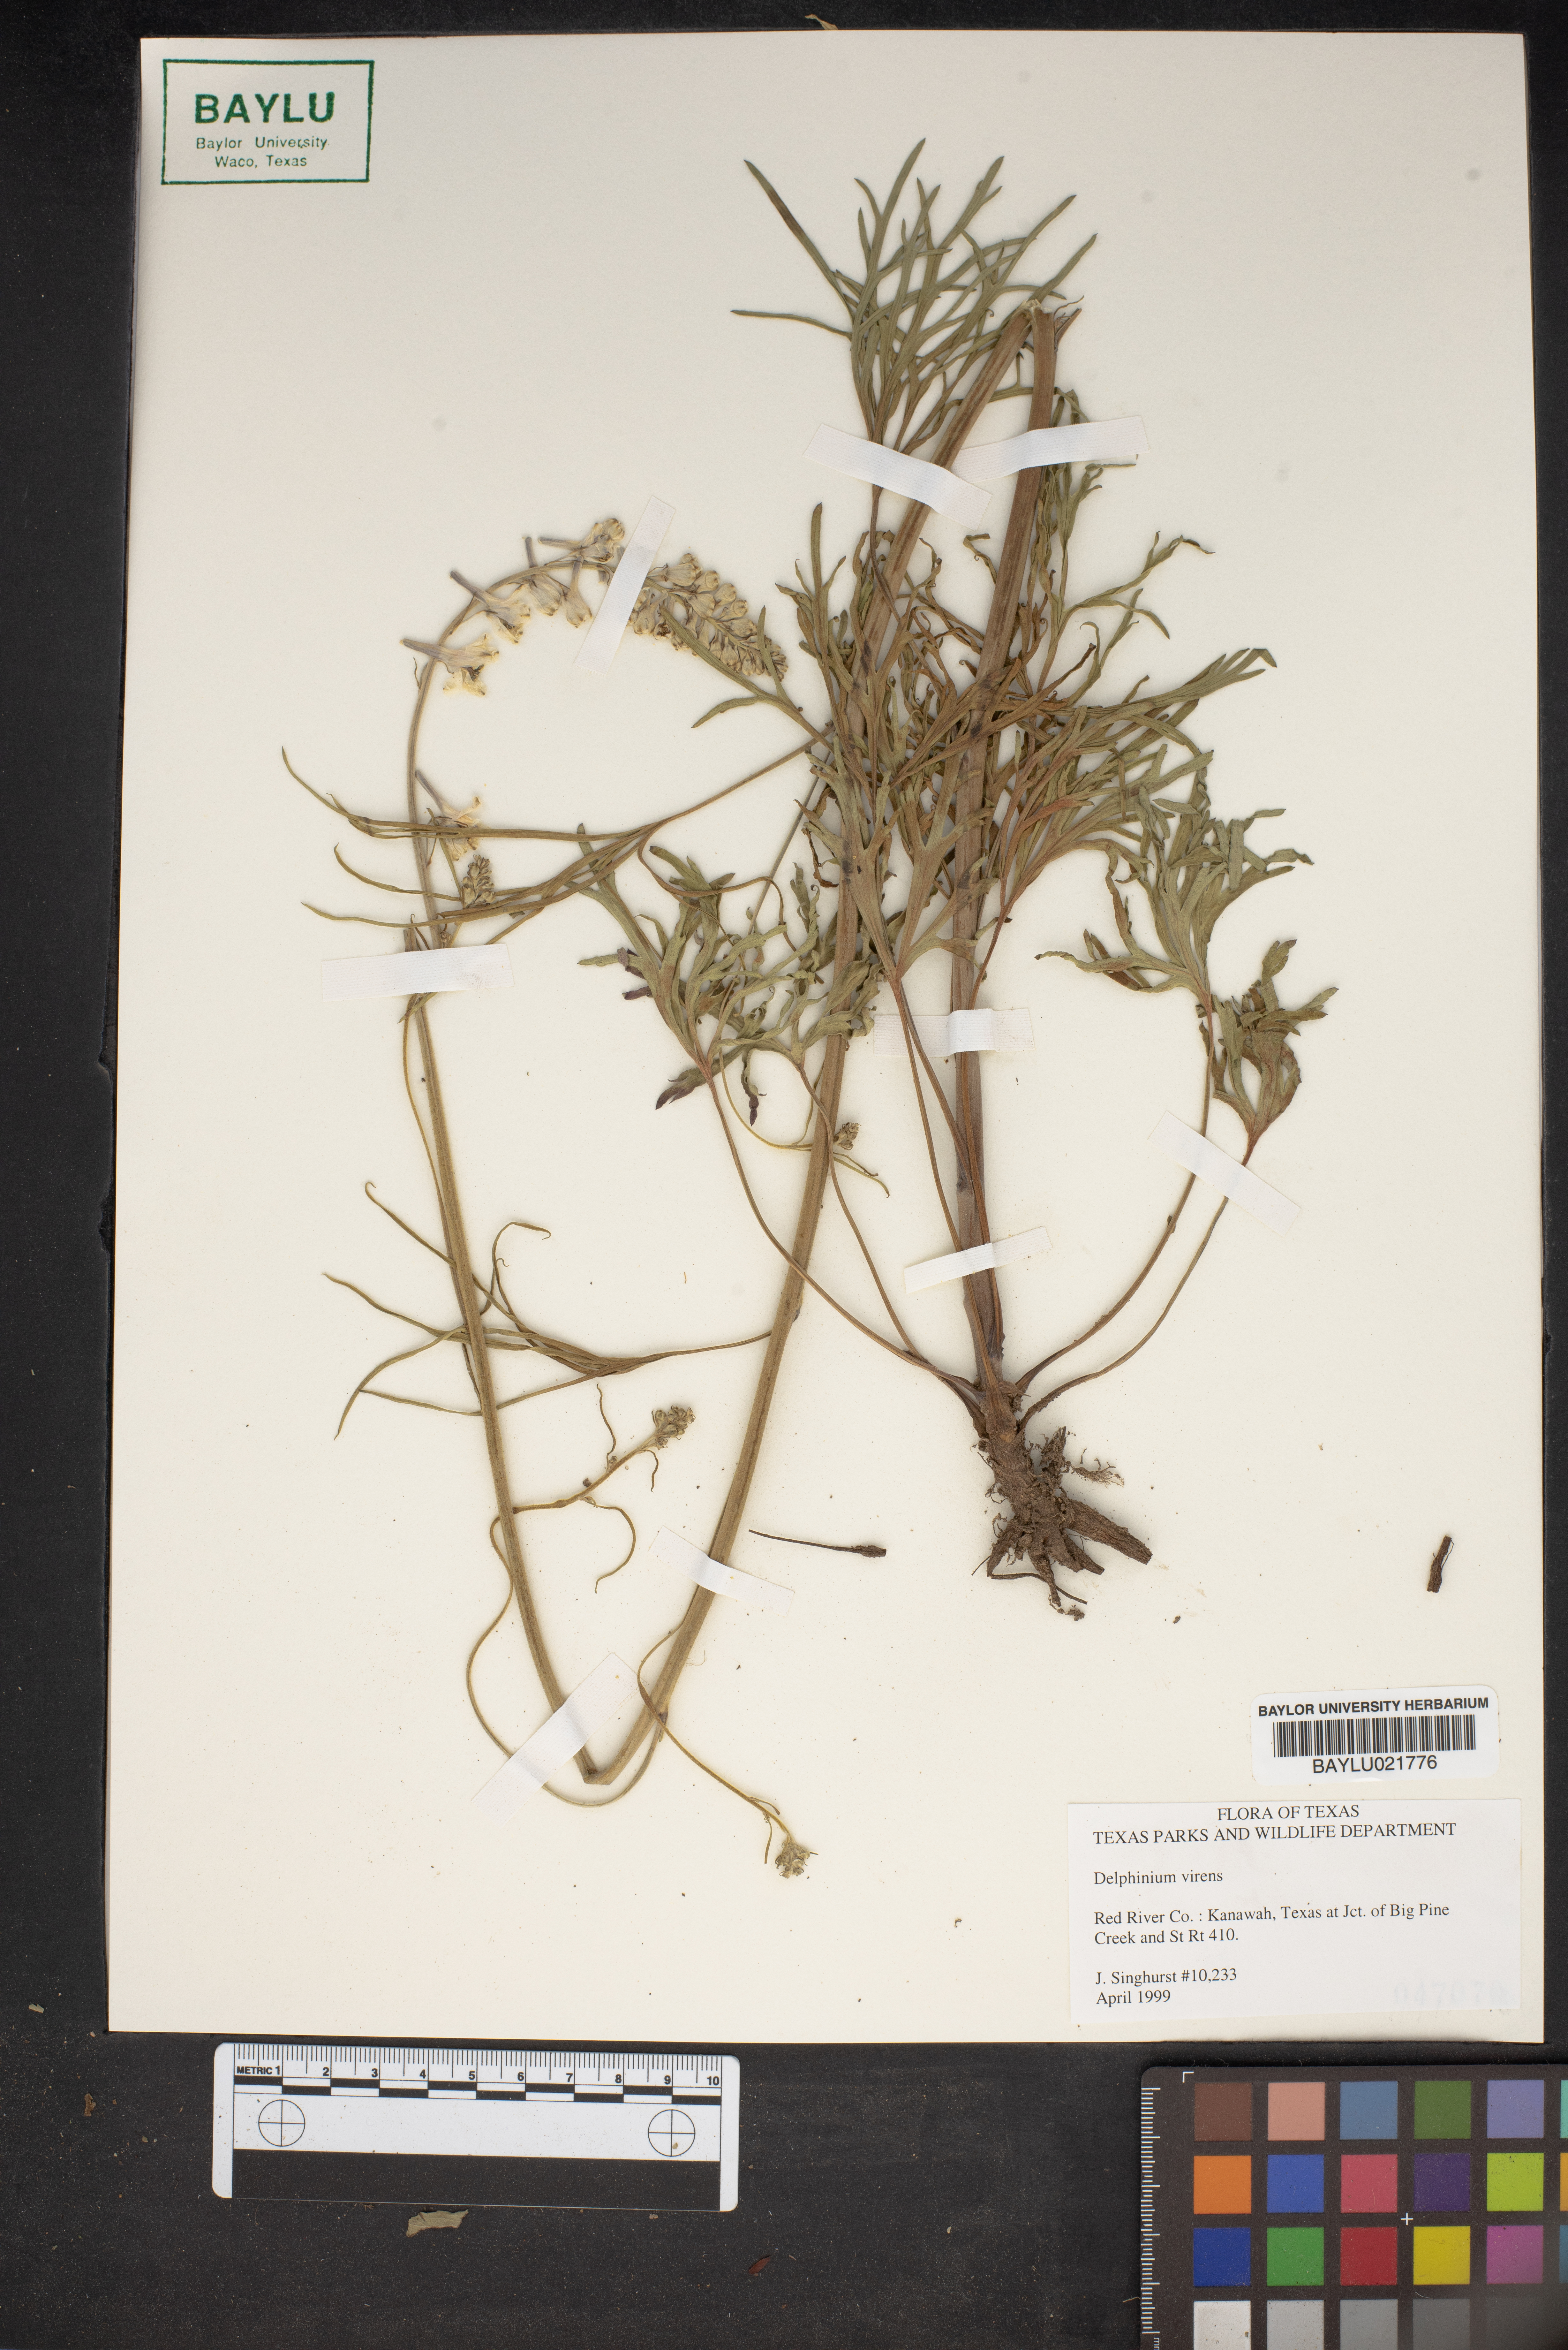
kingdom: Plantae
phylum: Tracheophyta
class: Magnoliopsida
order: Ranunculales
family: Ranunculaceae
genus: Delphinium
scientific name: Delphinium
